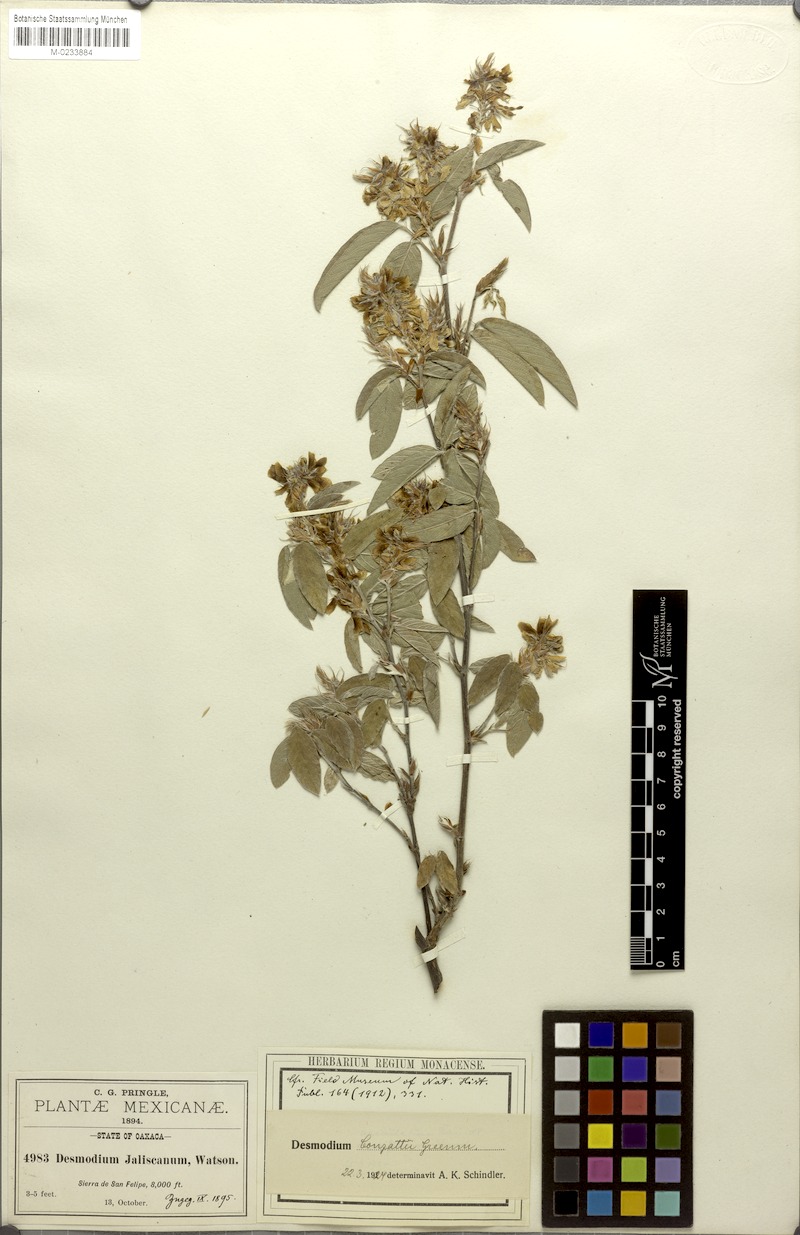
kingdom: Plantae
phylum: Tracheophyta
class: Magnoliopsida
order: Fabales
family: Fabaceae
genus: Desmodium
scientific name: Desmodium conzattii
